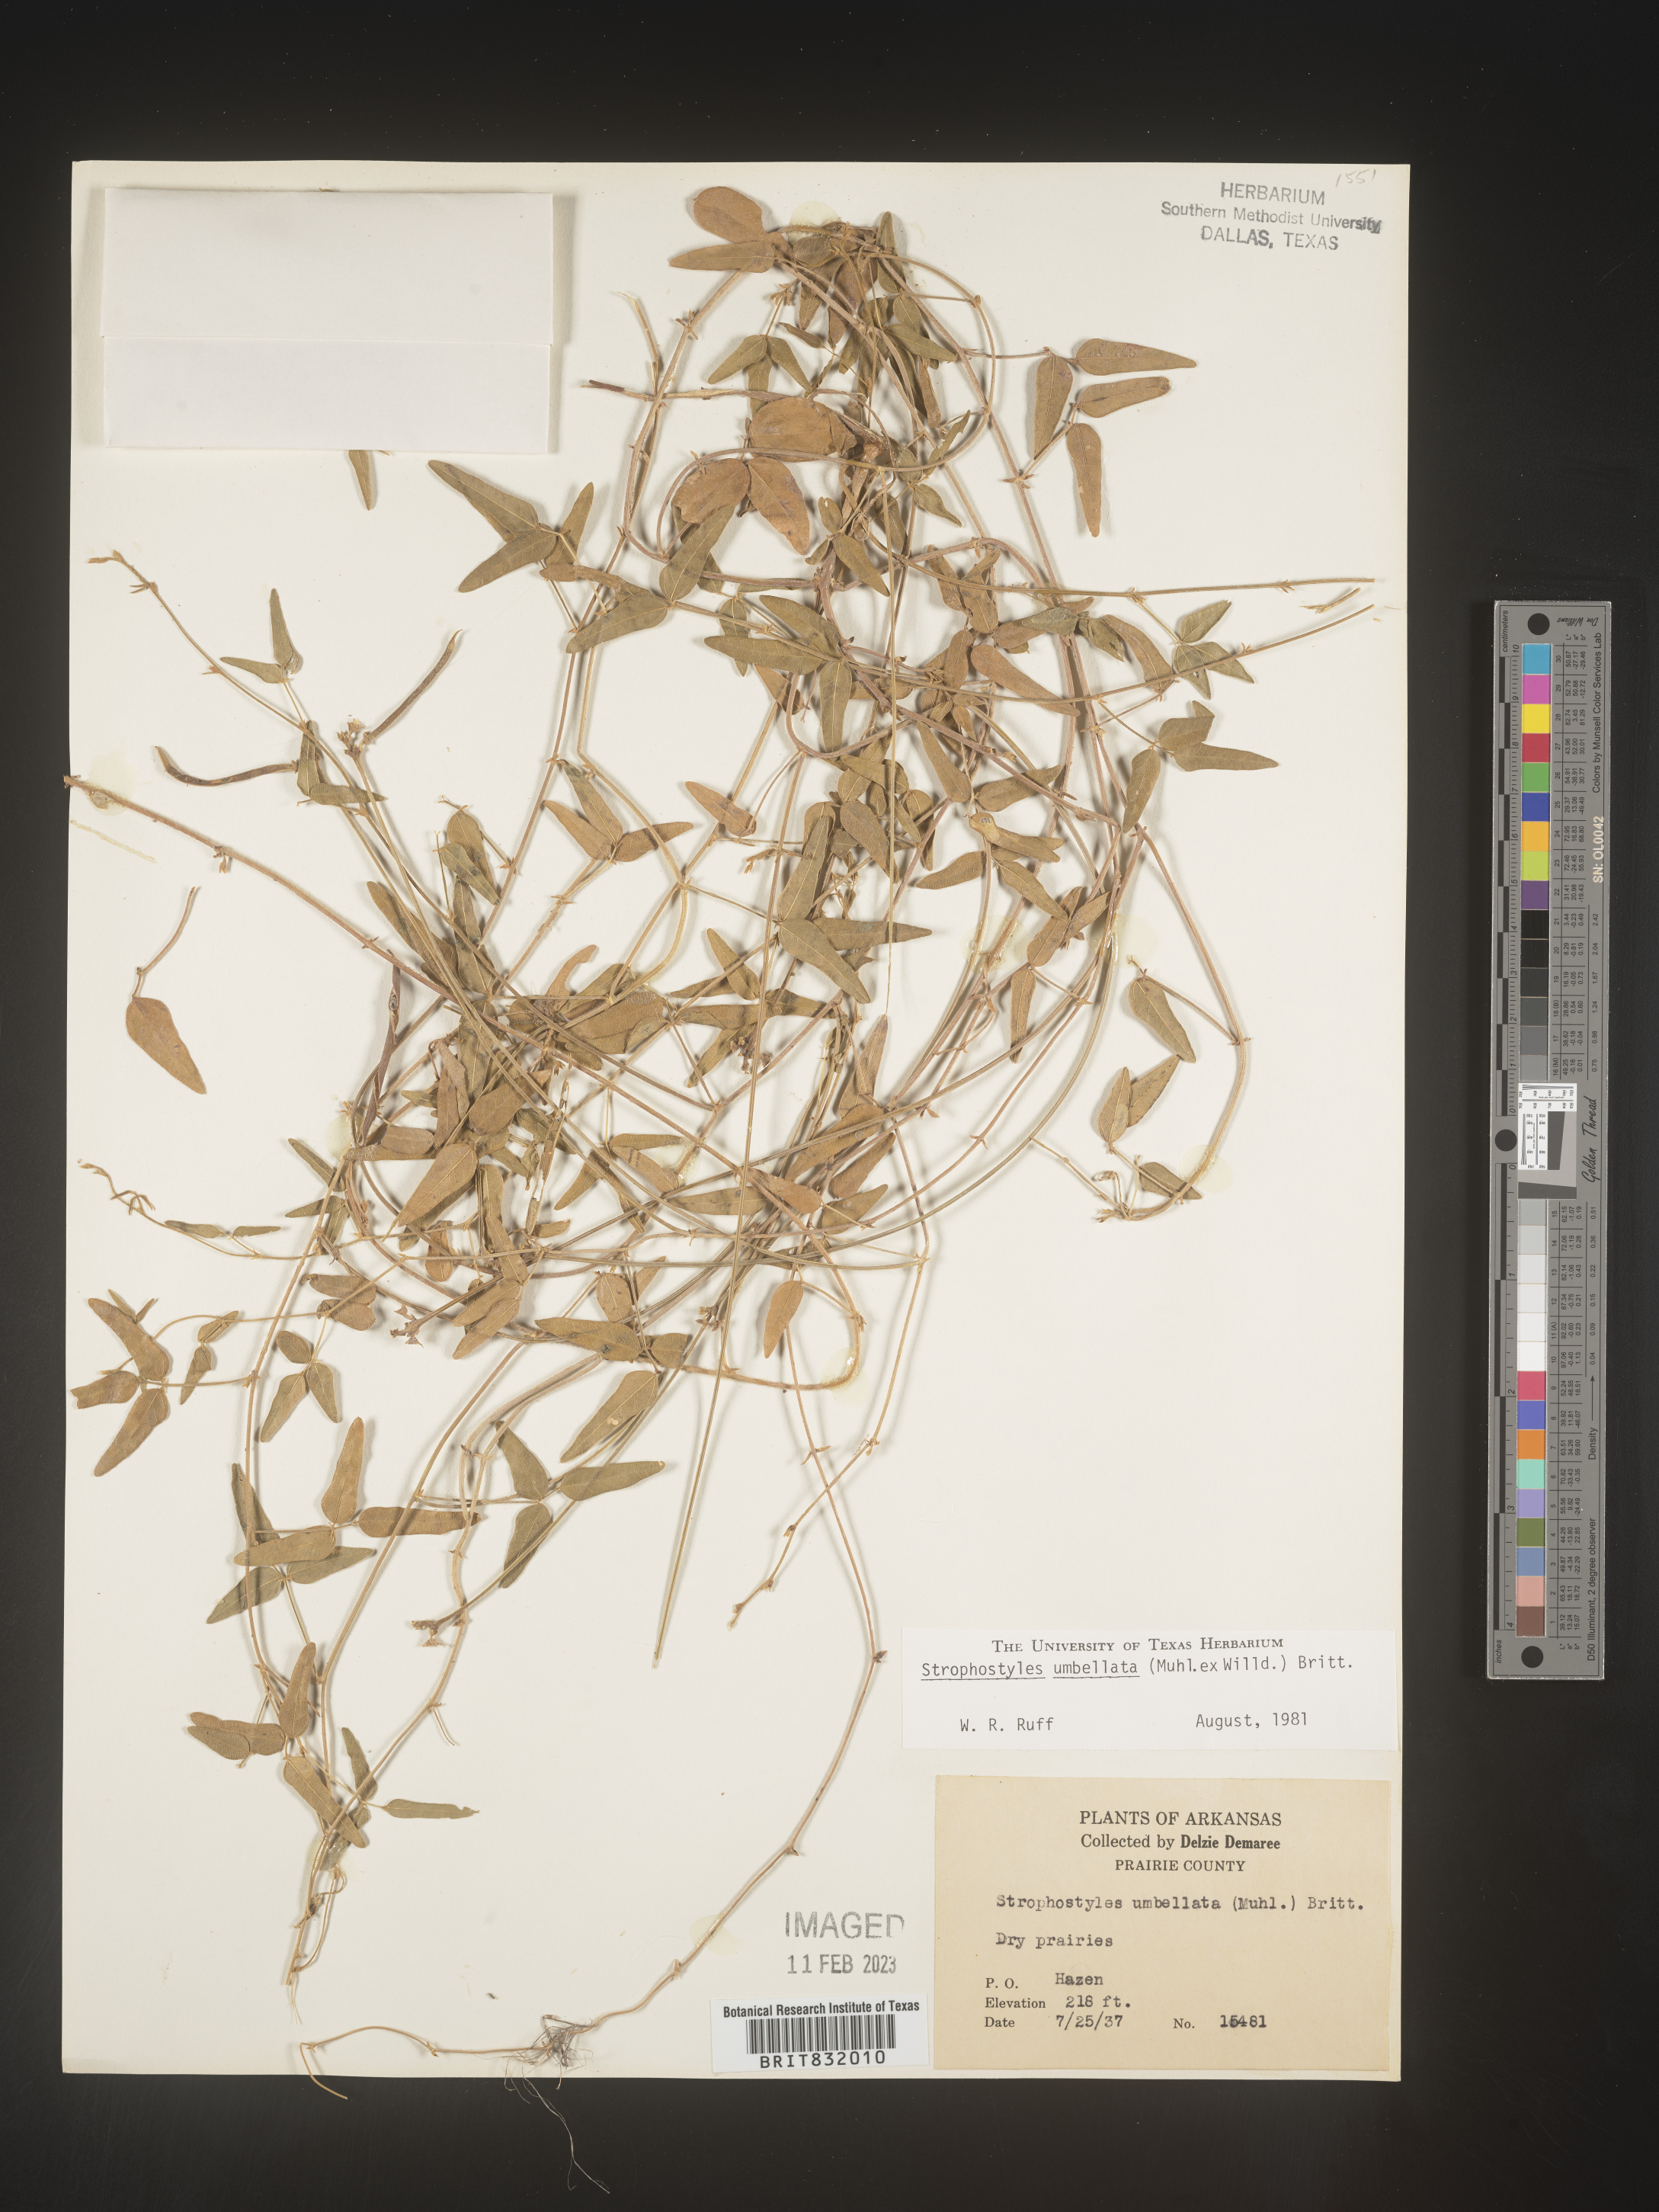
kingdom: Plantae
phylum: Tracheophyta
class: Magnoliopsida
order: Fabales
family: Fabaceae
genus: Strophostyles
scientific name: Strophostyles umbellata
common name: Perennial wild bean
